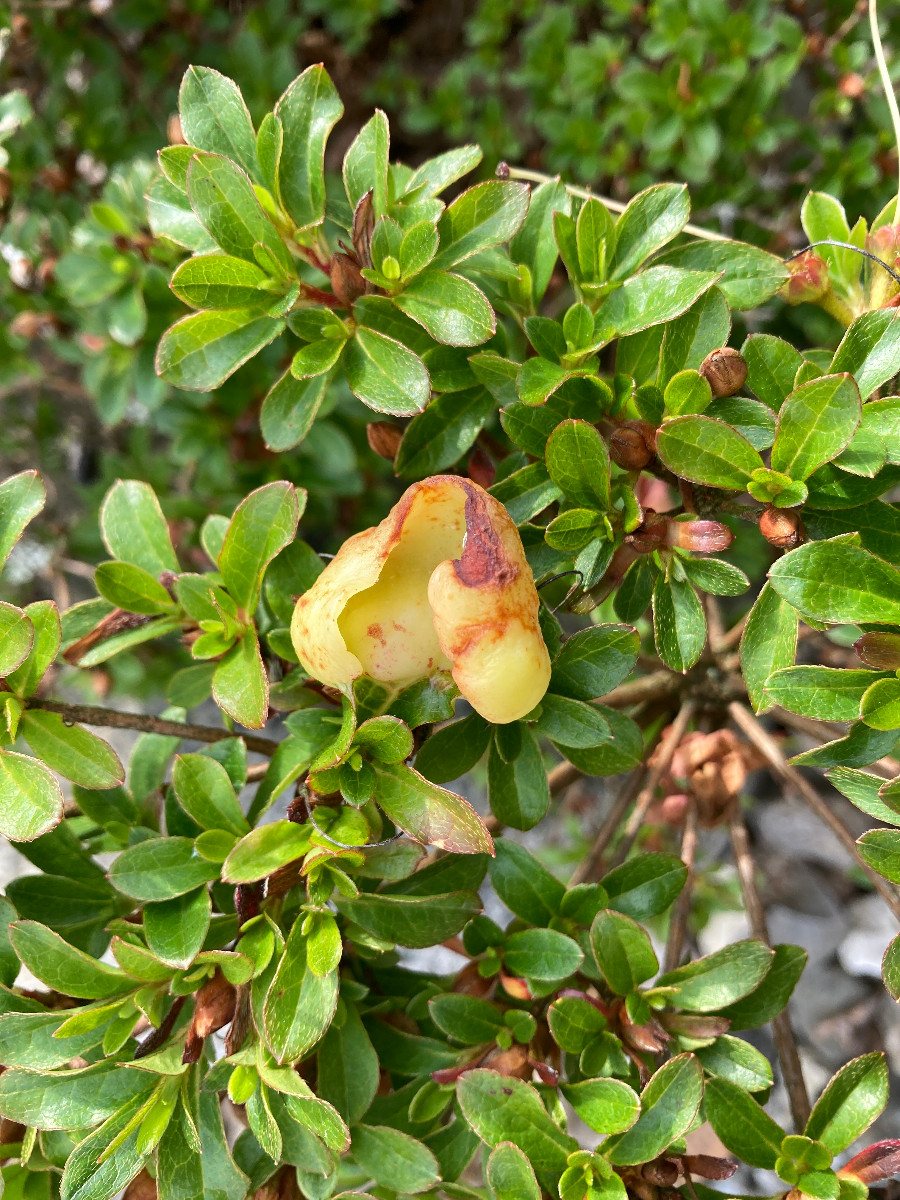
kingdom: Fungi
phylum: Basidiomycota
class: Exobasidiomycetes
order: Exobasidiales
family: Exobasidiaceae
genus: Exobasidium
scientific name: Exobasidium rhododendri
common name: rhododendron-bøllesvamp
